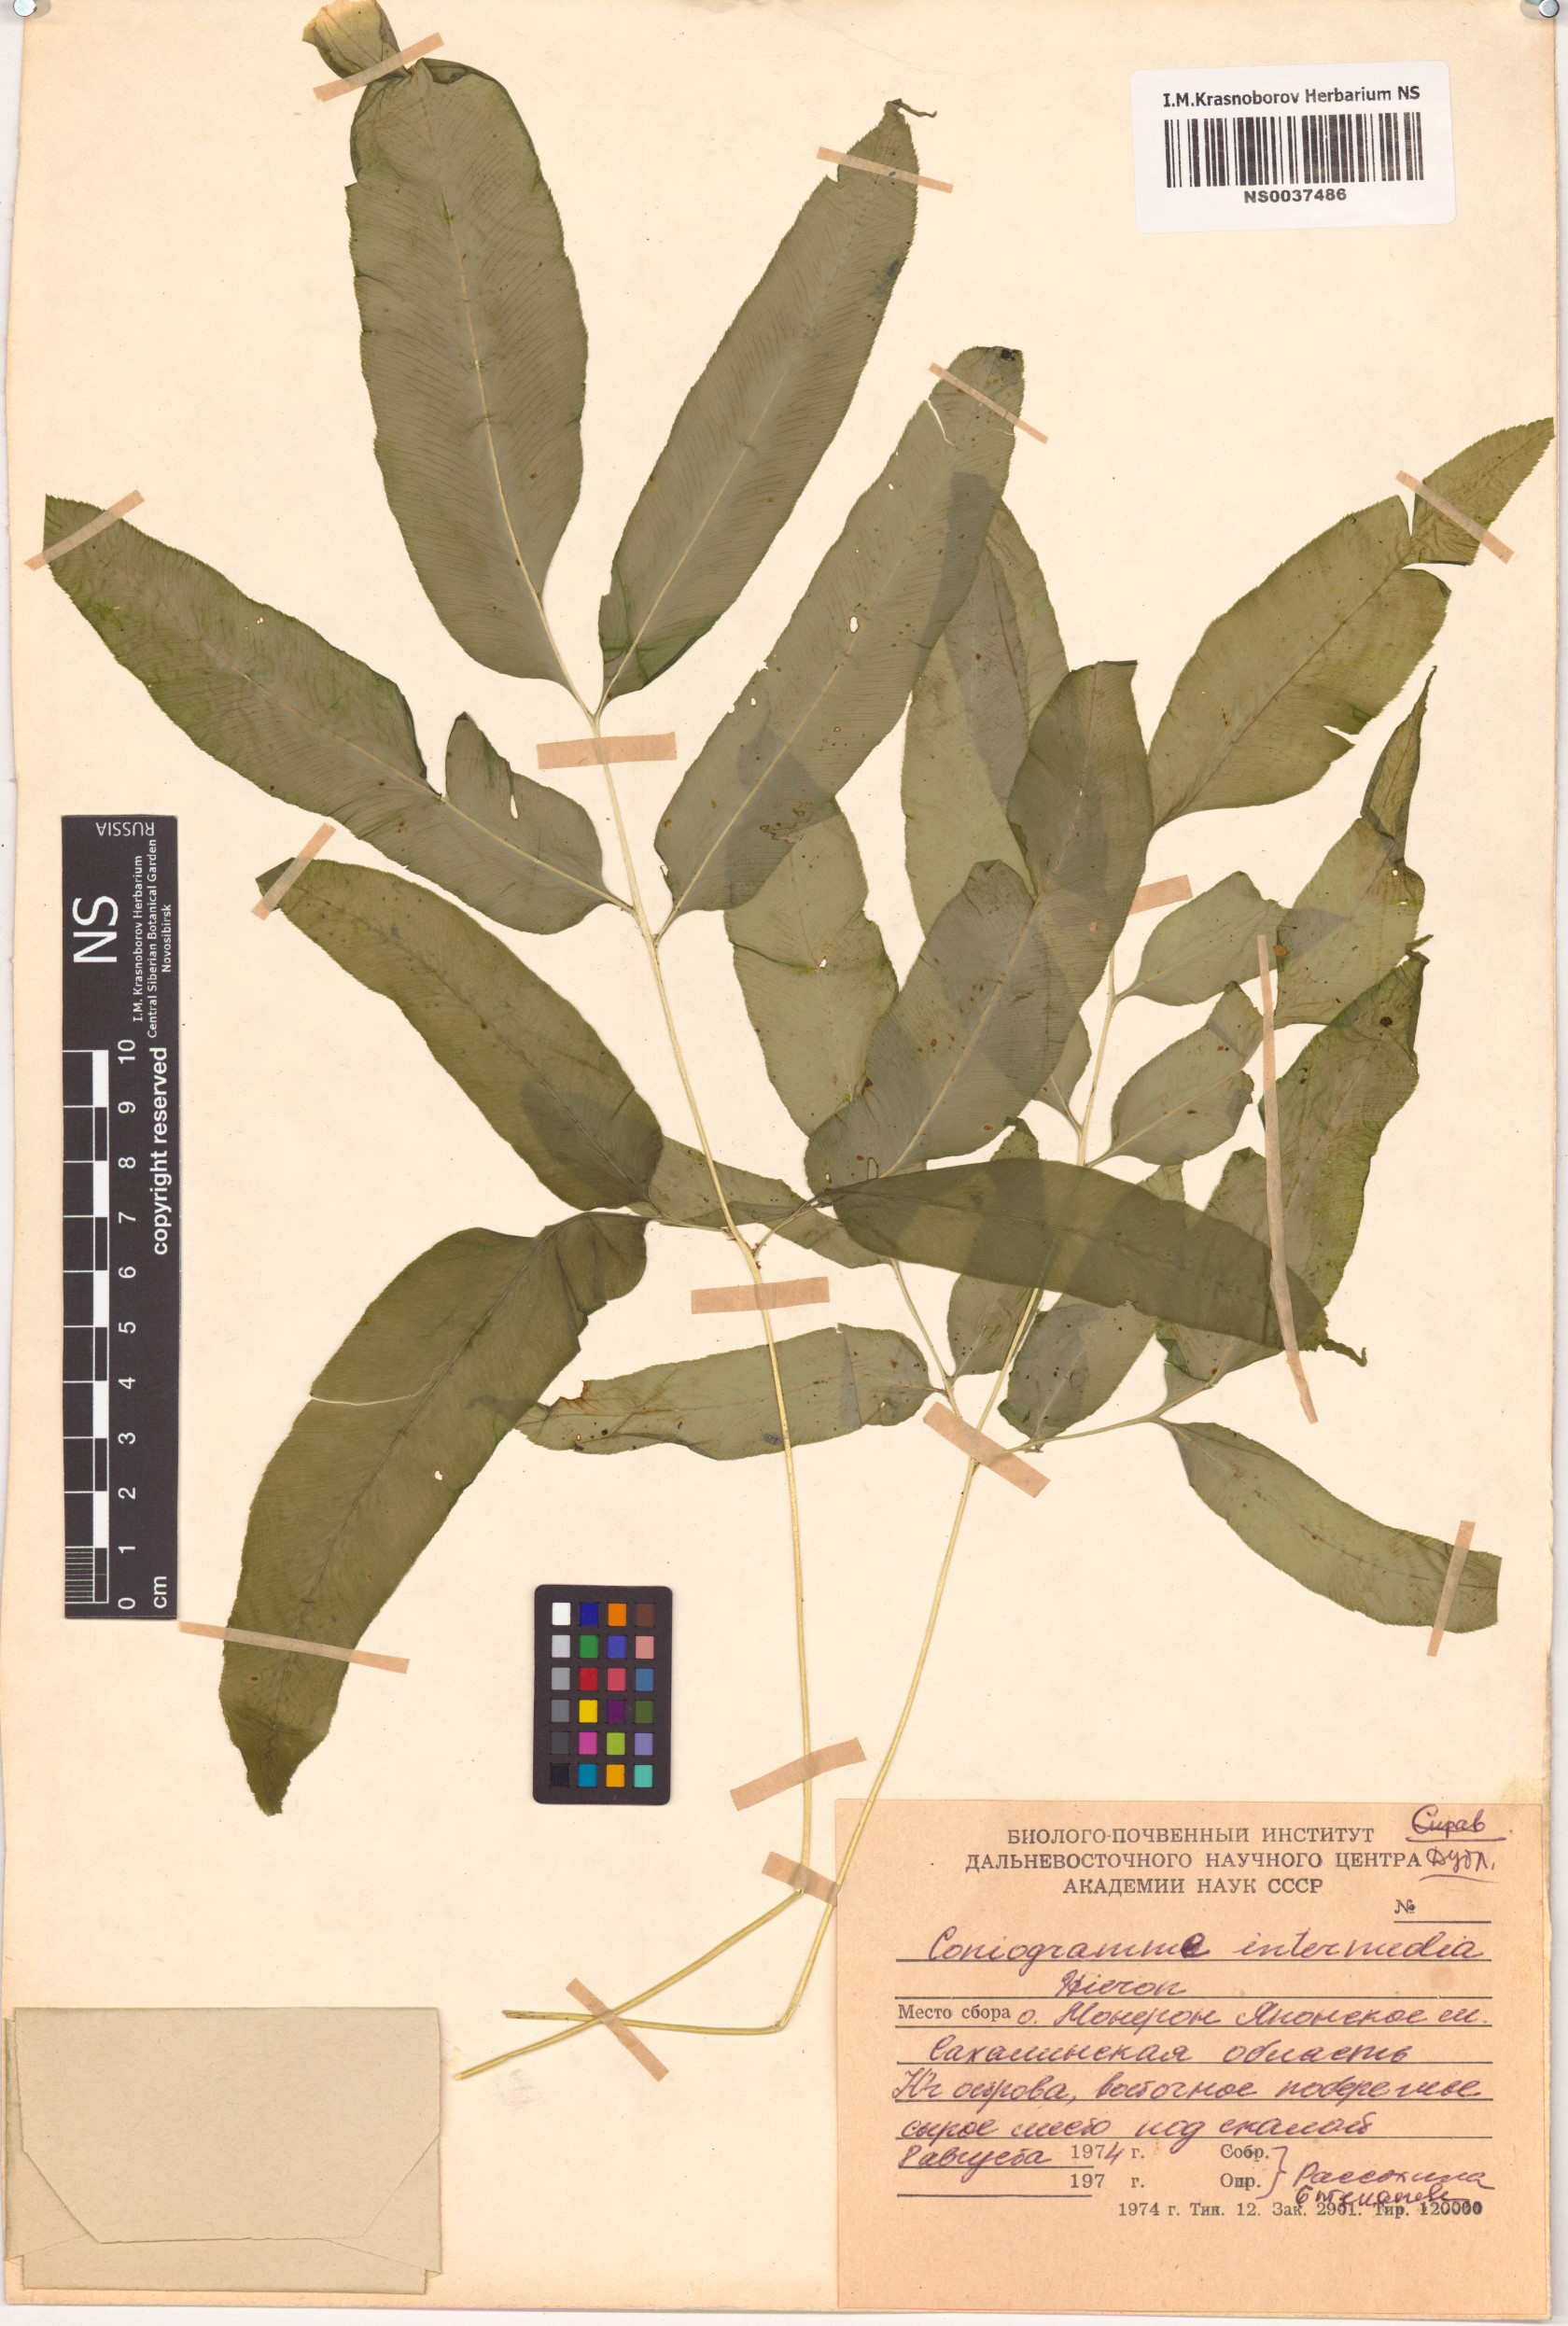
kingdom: Plantae
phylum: Tracheophyta
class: Polypodiopsida
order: Polypodiales
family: Pteridaceae
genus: Coniogramme
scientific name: Coniogramme intermedia
